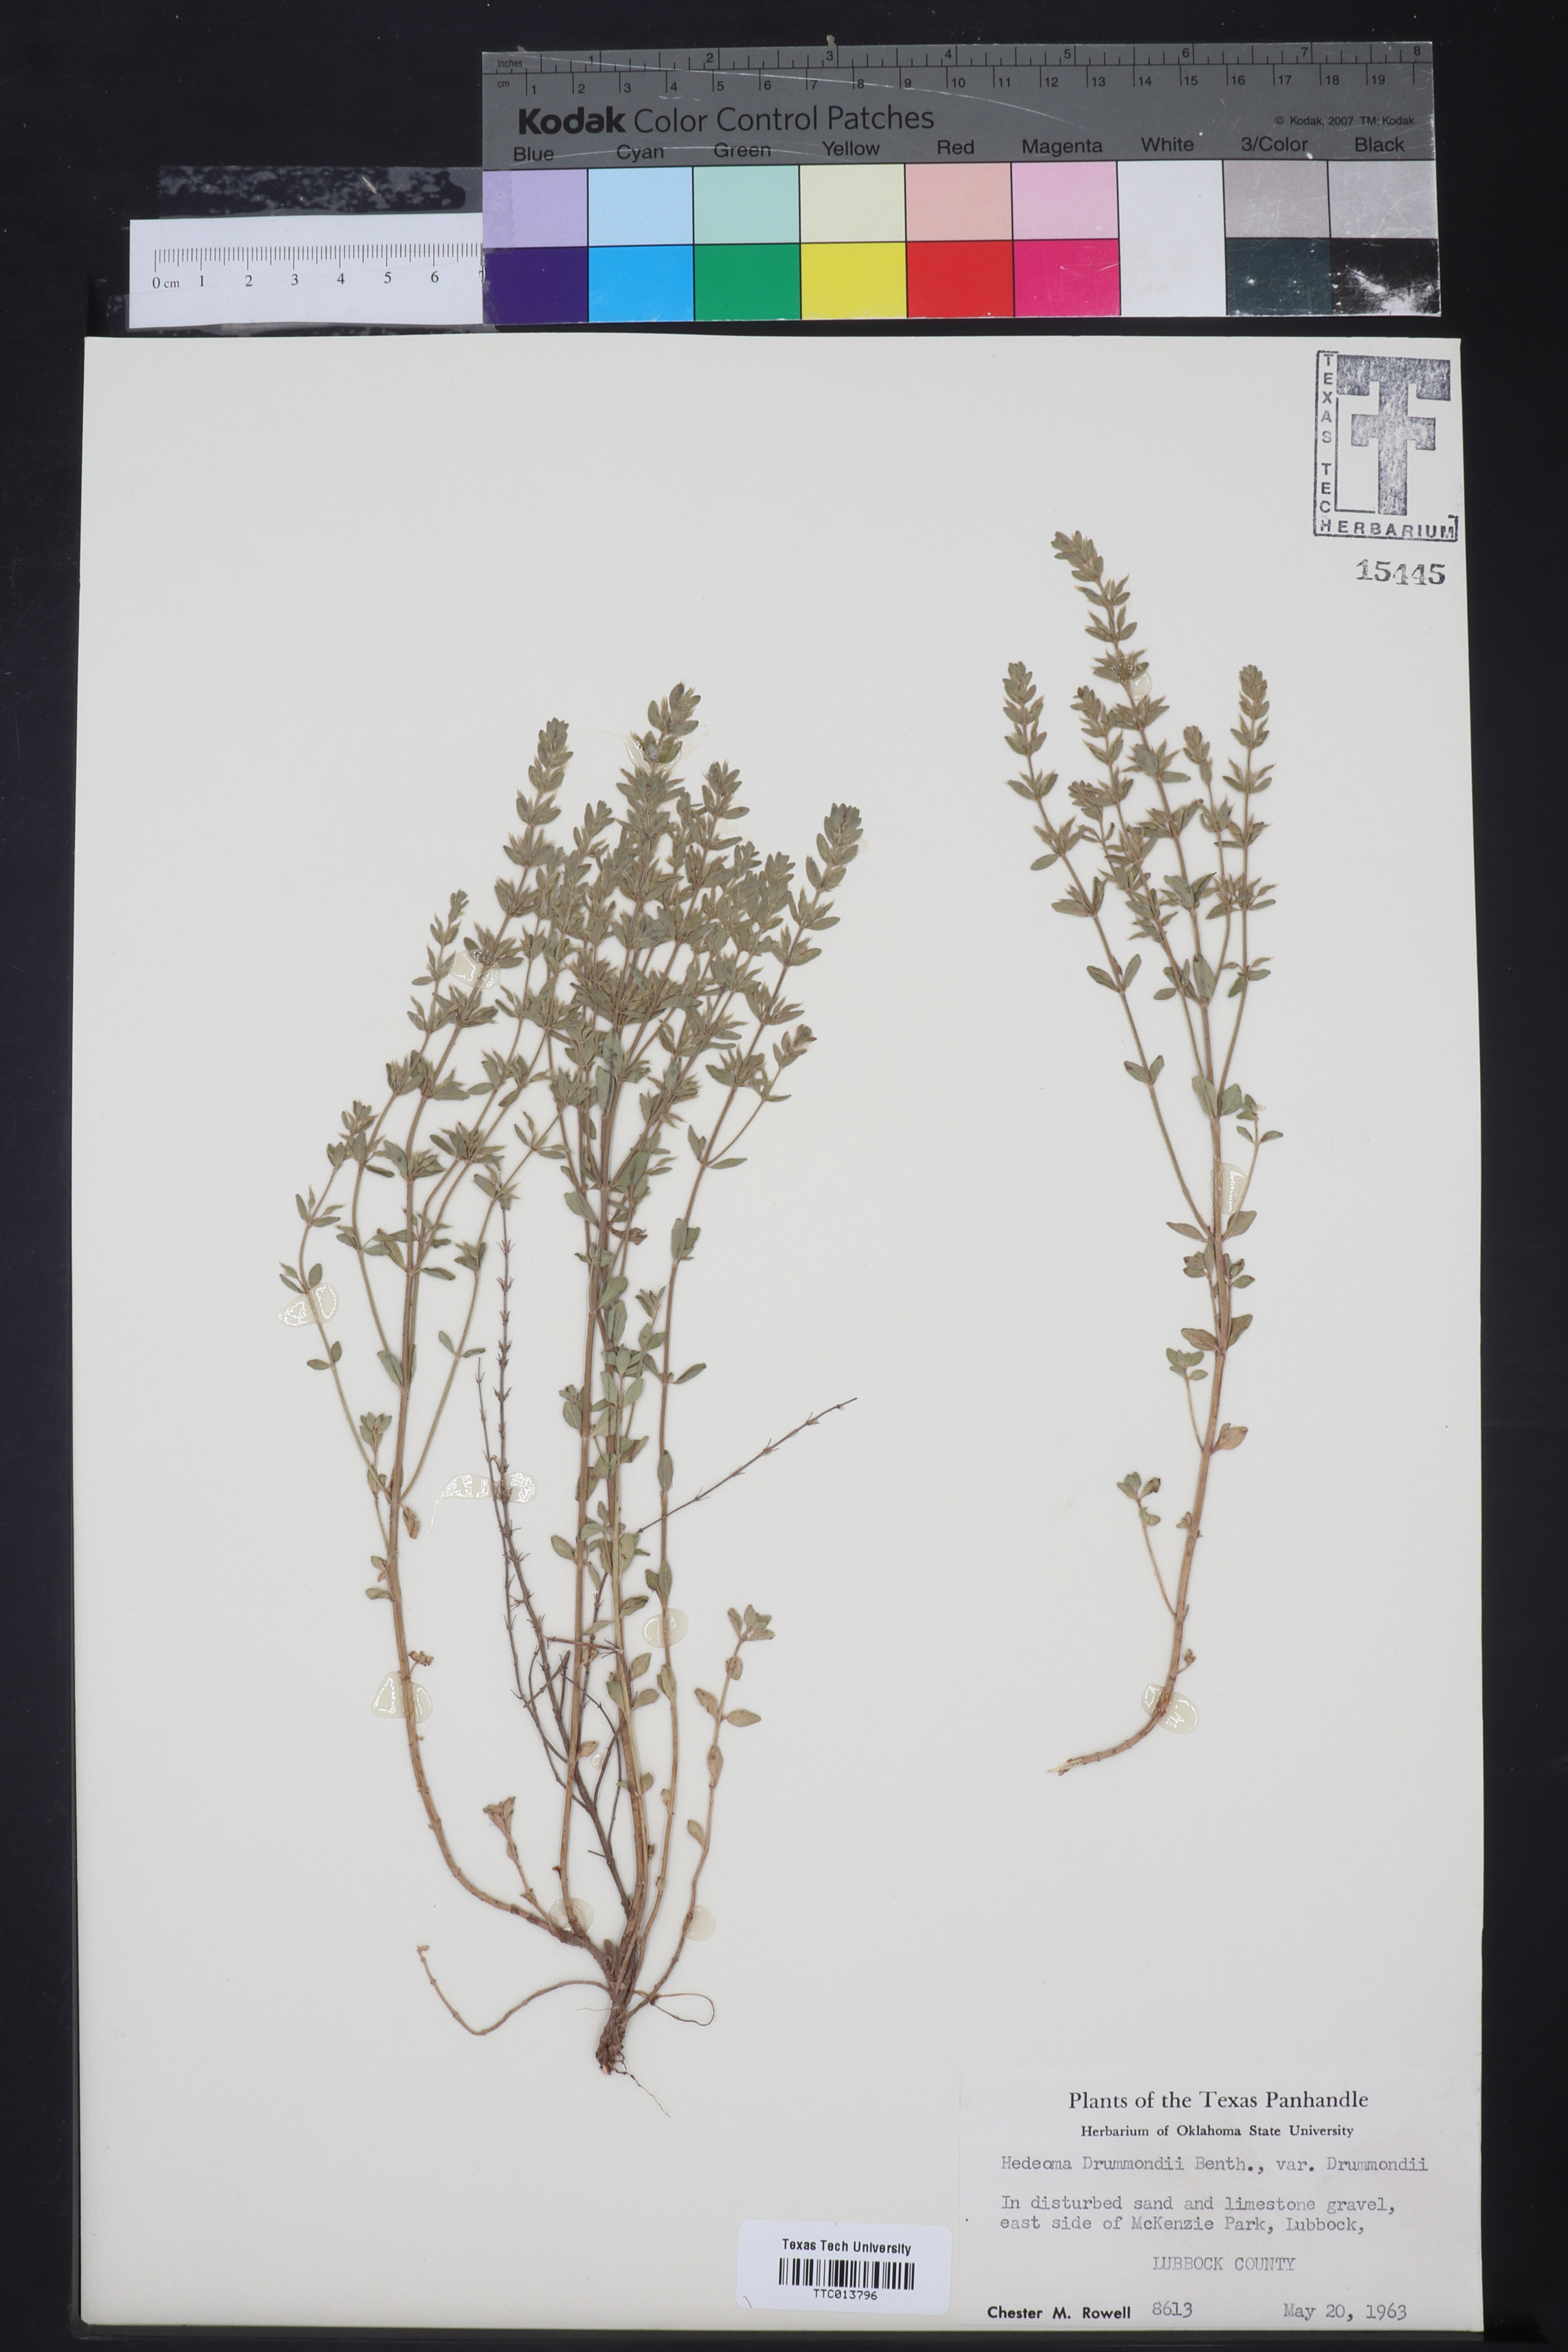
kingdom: Plantae
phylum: Tracheophyta
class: Magnoliopsida
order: Lamiales
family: Lamiaceae
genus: Hedeoma
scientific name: Hedeoma drummondii
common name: New mexico pennyroyal
